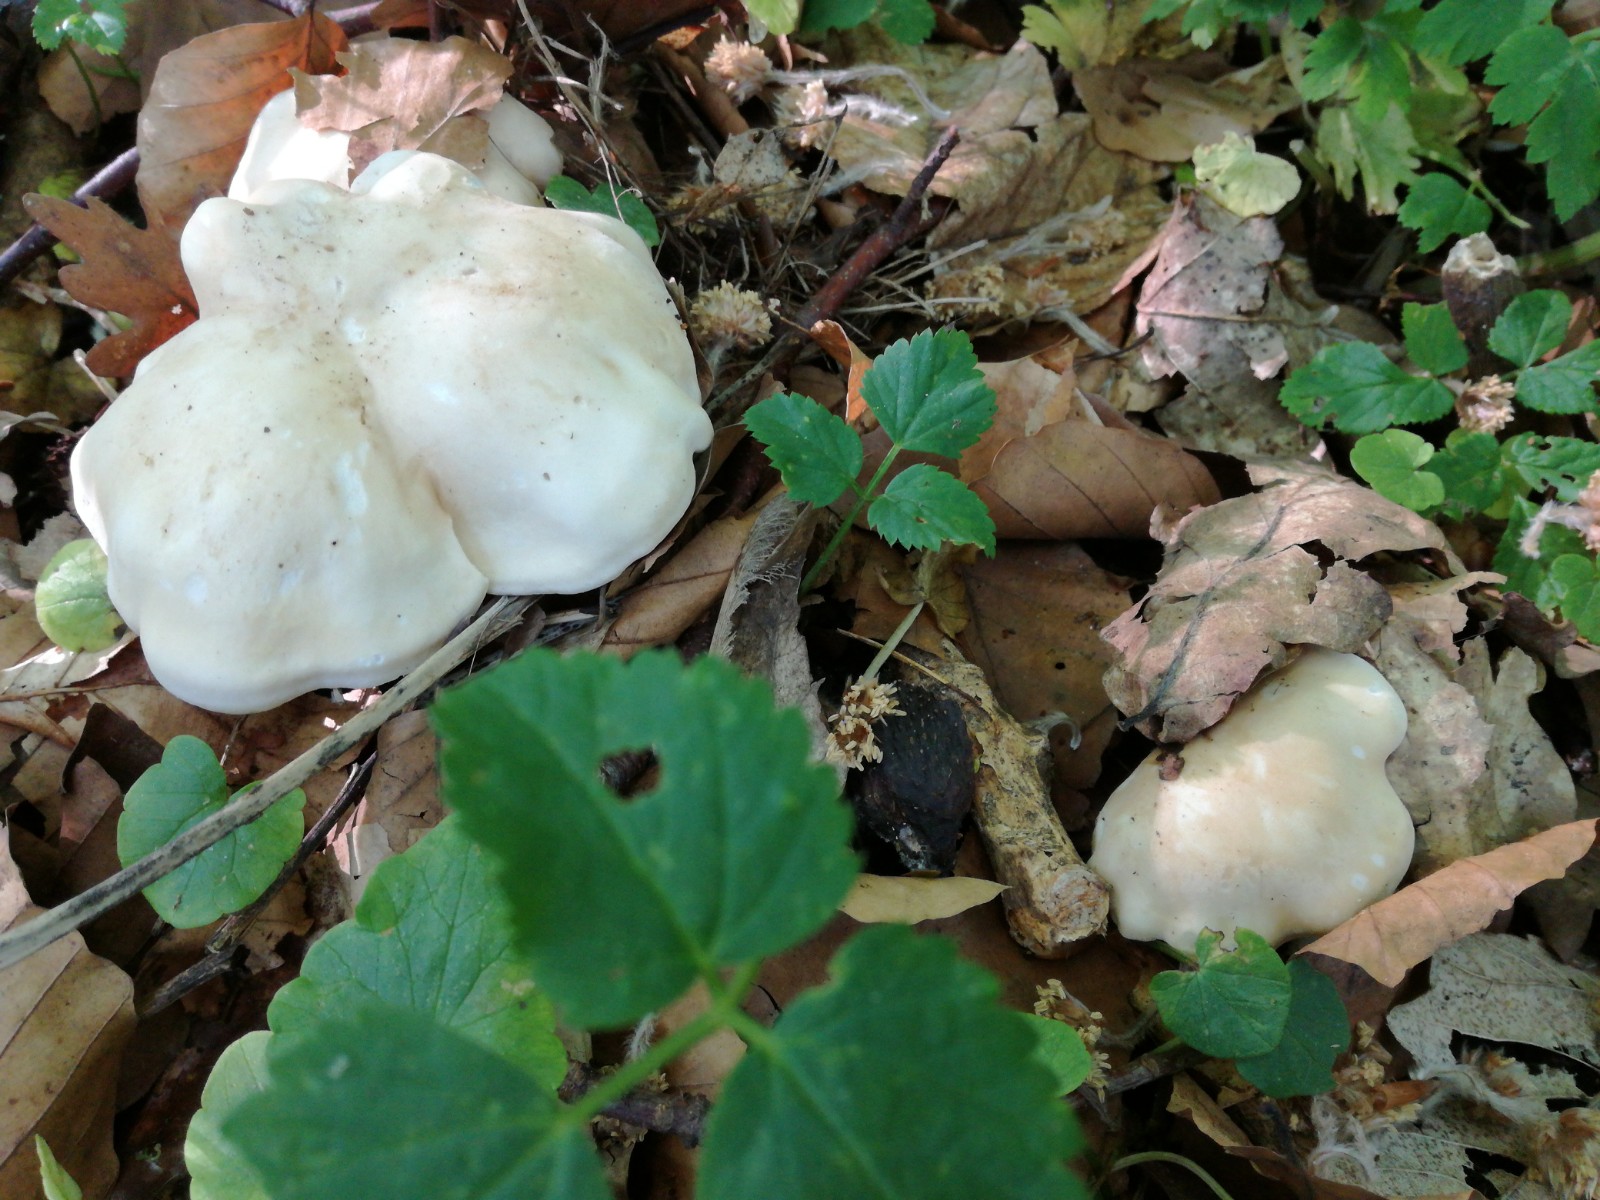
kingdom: Fungi
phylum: Basidiomycota
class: Agaricomycetes
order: Agaricales
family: Lyophyllaceae
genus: Calocybe
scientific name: Calocybe gambosa
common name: vårmusseron
